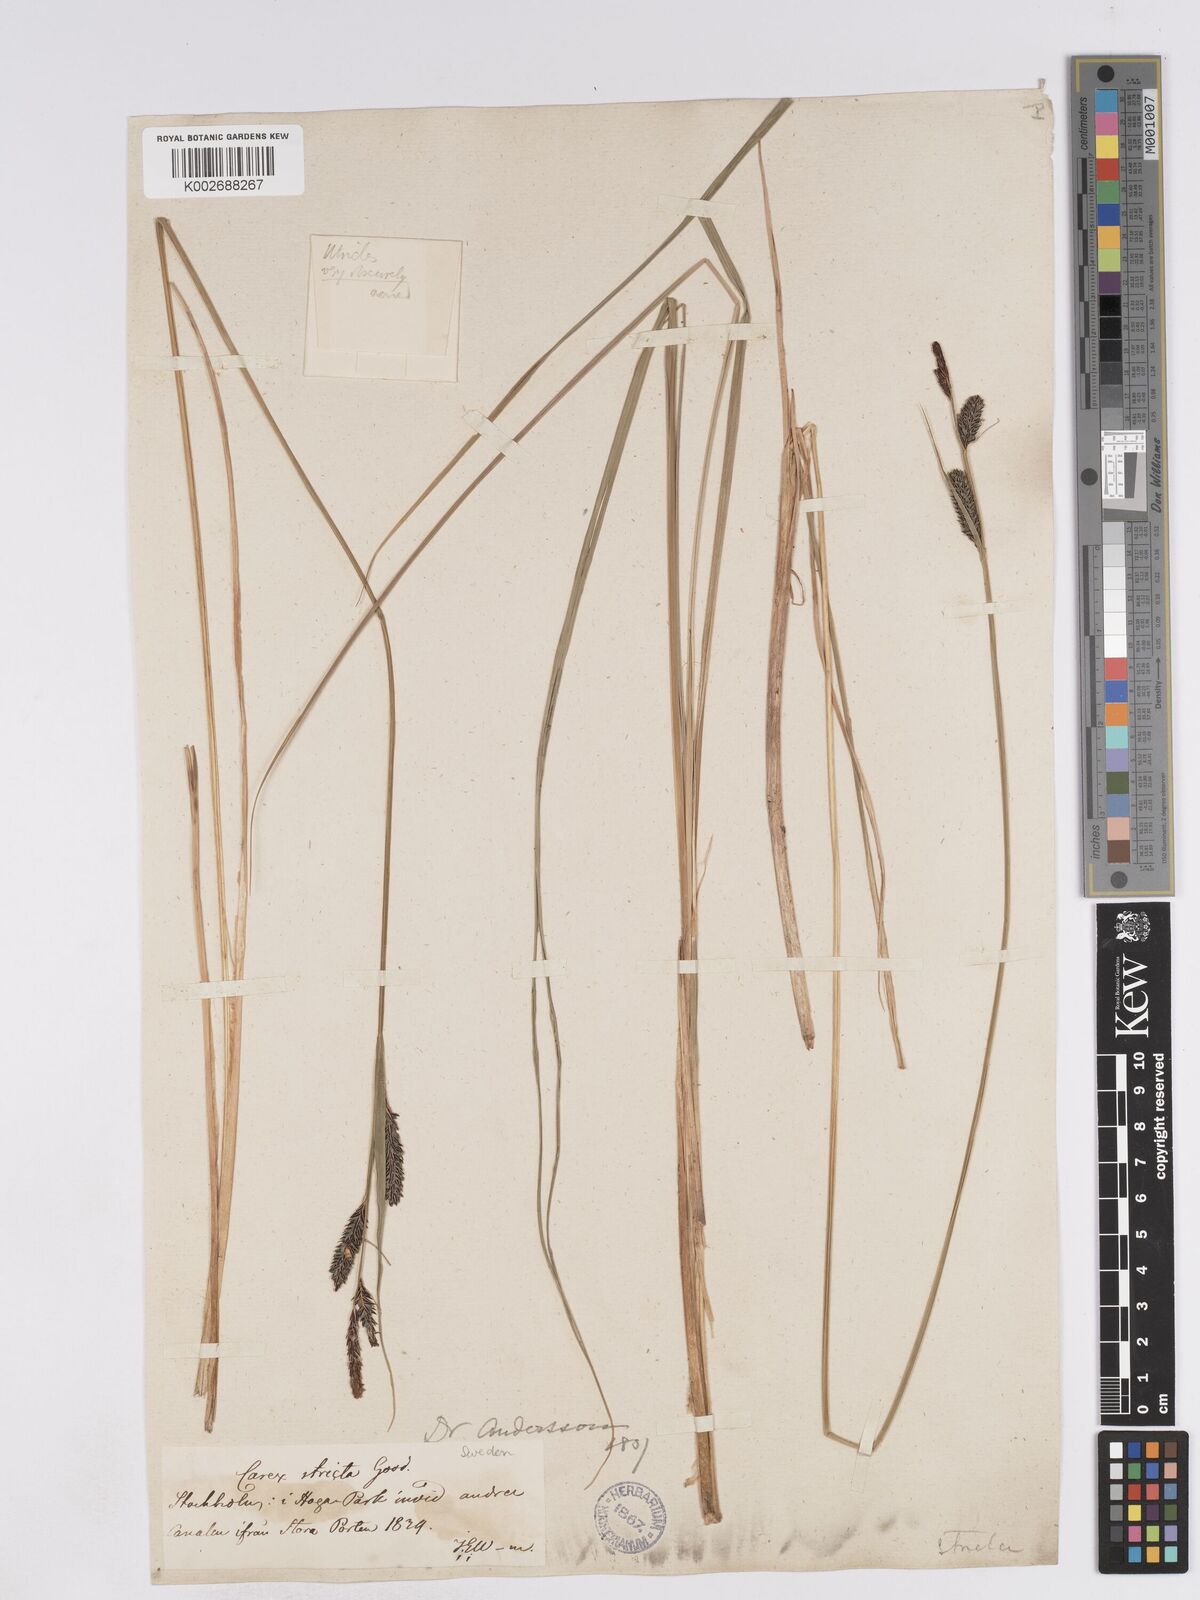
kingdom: Plantae
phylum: Tracheophyta
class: Liliopsida
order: Poales
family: Cyperaceae
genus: Carex
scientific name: Carex elata
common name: Tufted sedge
